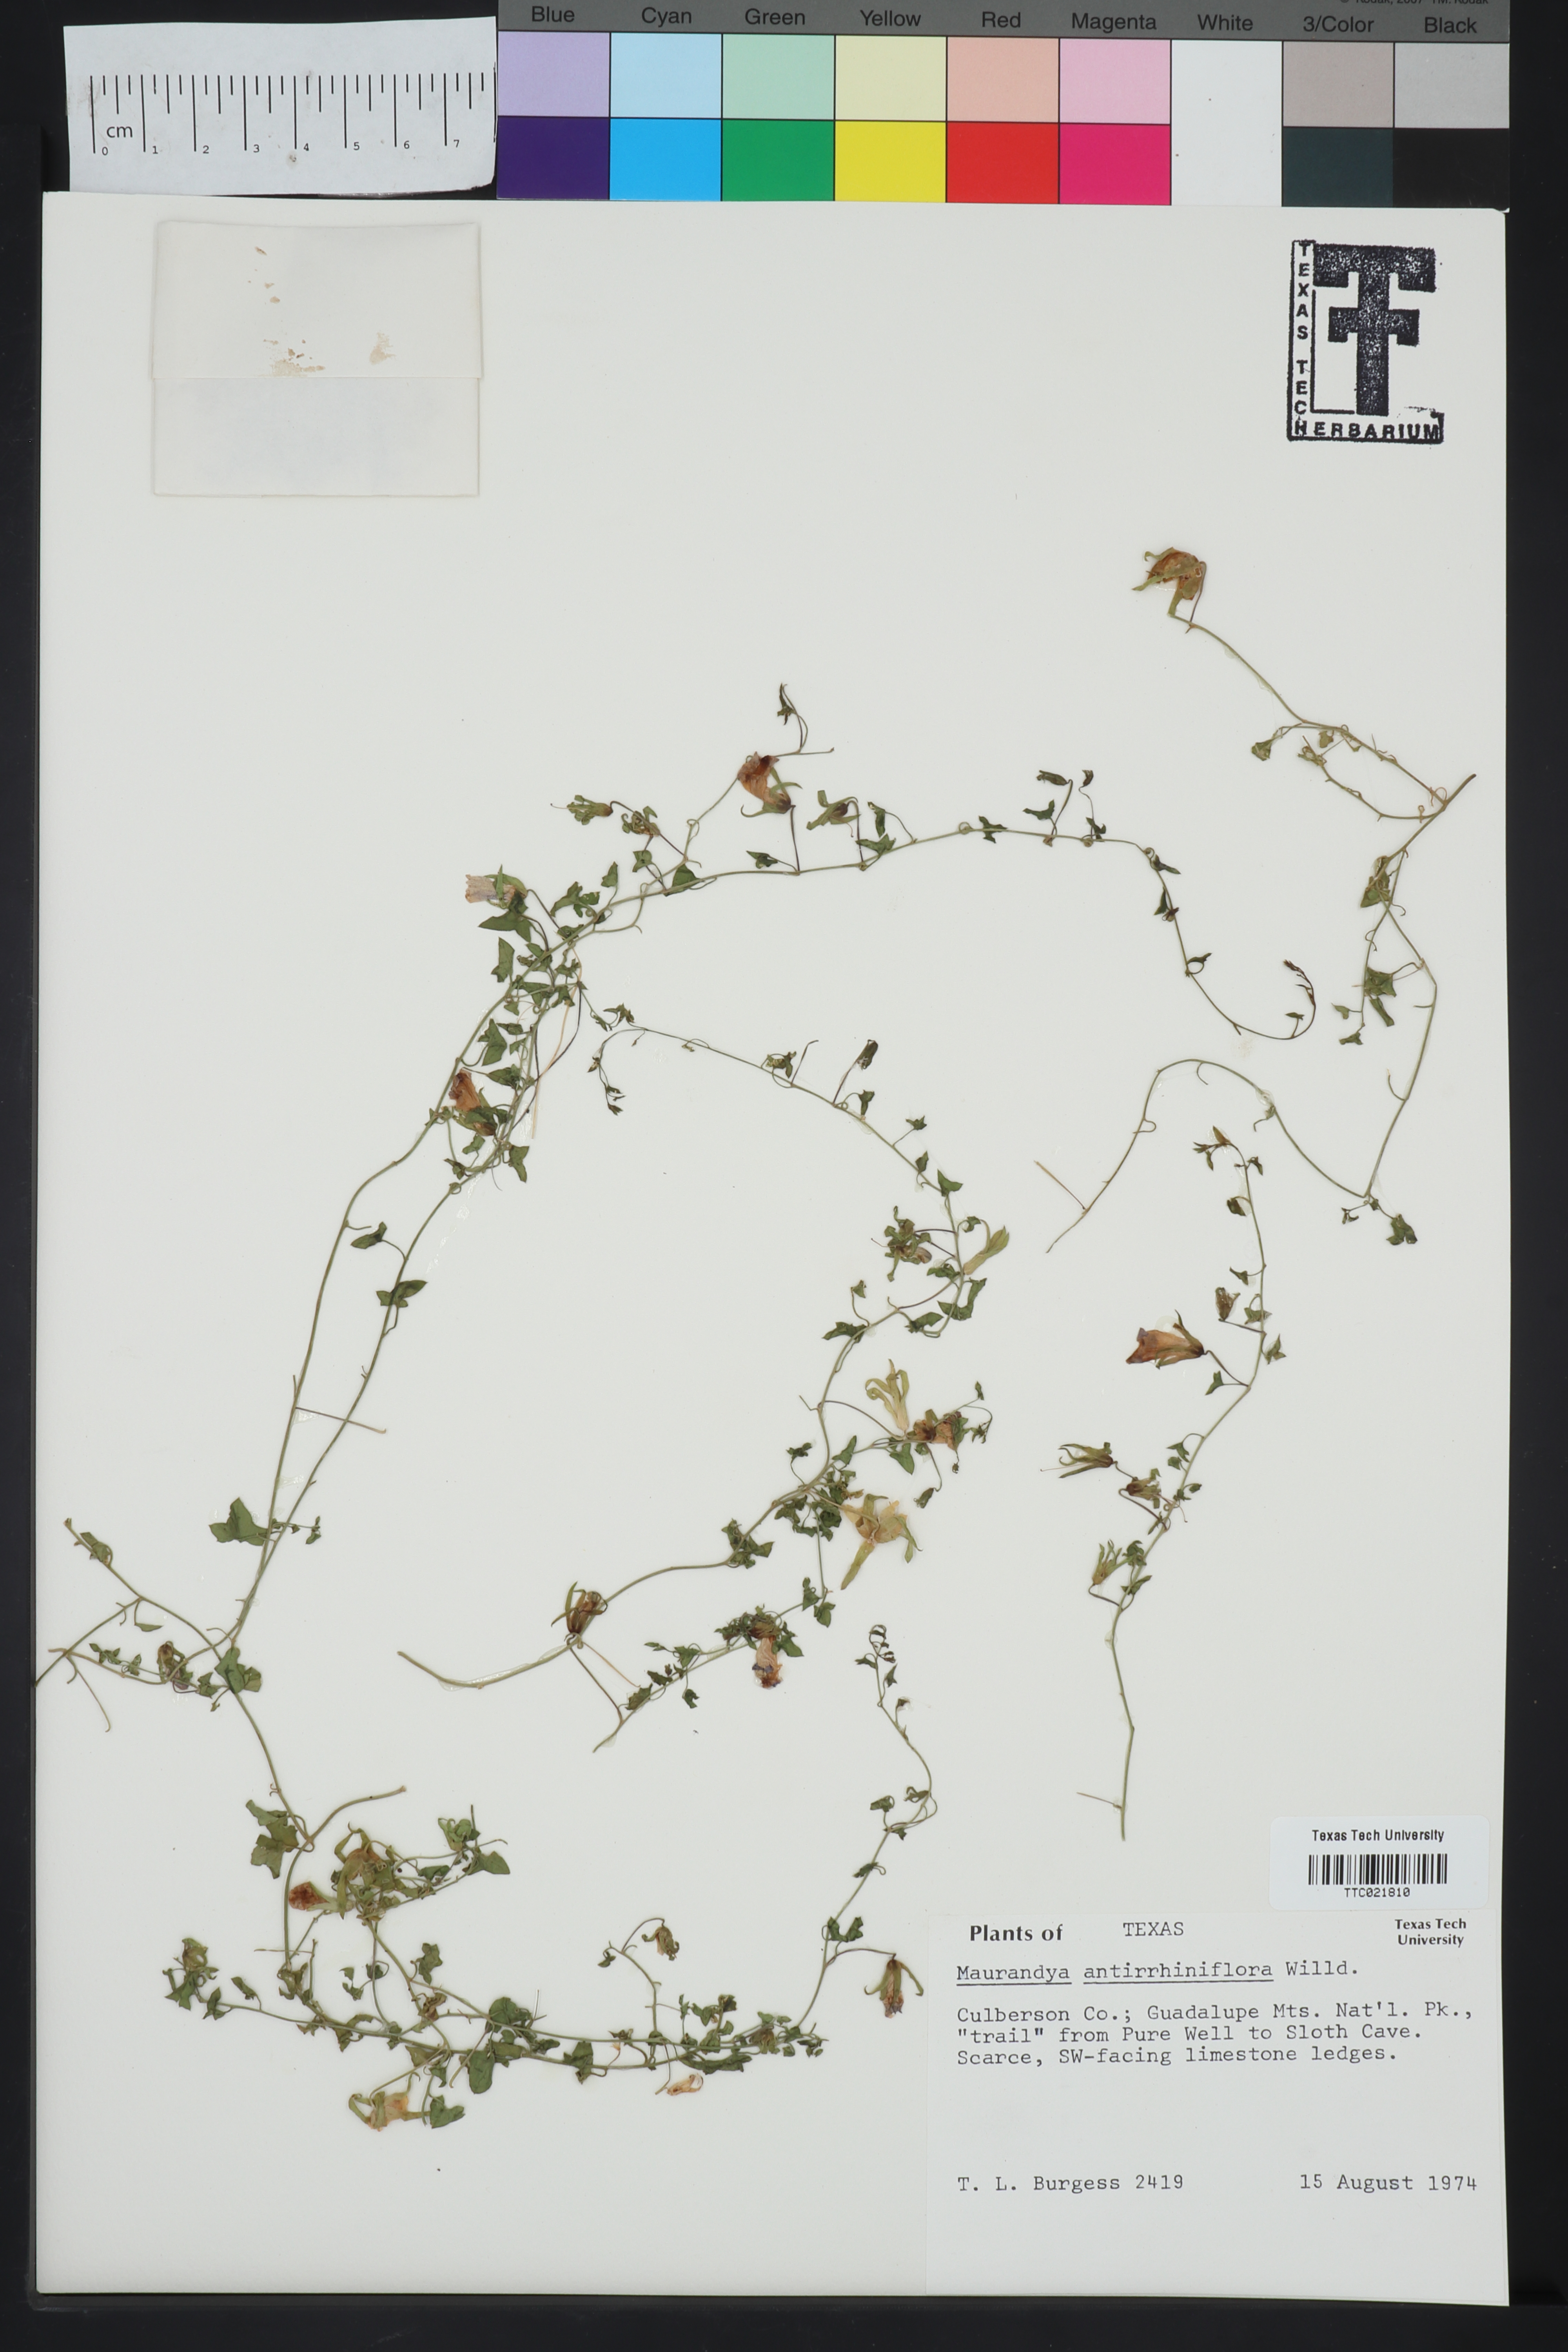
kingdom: Plantae
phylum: Tracheophyta
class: Magnoliopsida
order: Lamiales
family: Plantaginaceae
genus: Maurandella
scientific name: Maurandella antirrhiniflora
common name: Violet twining-snapdragon
